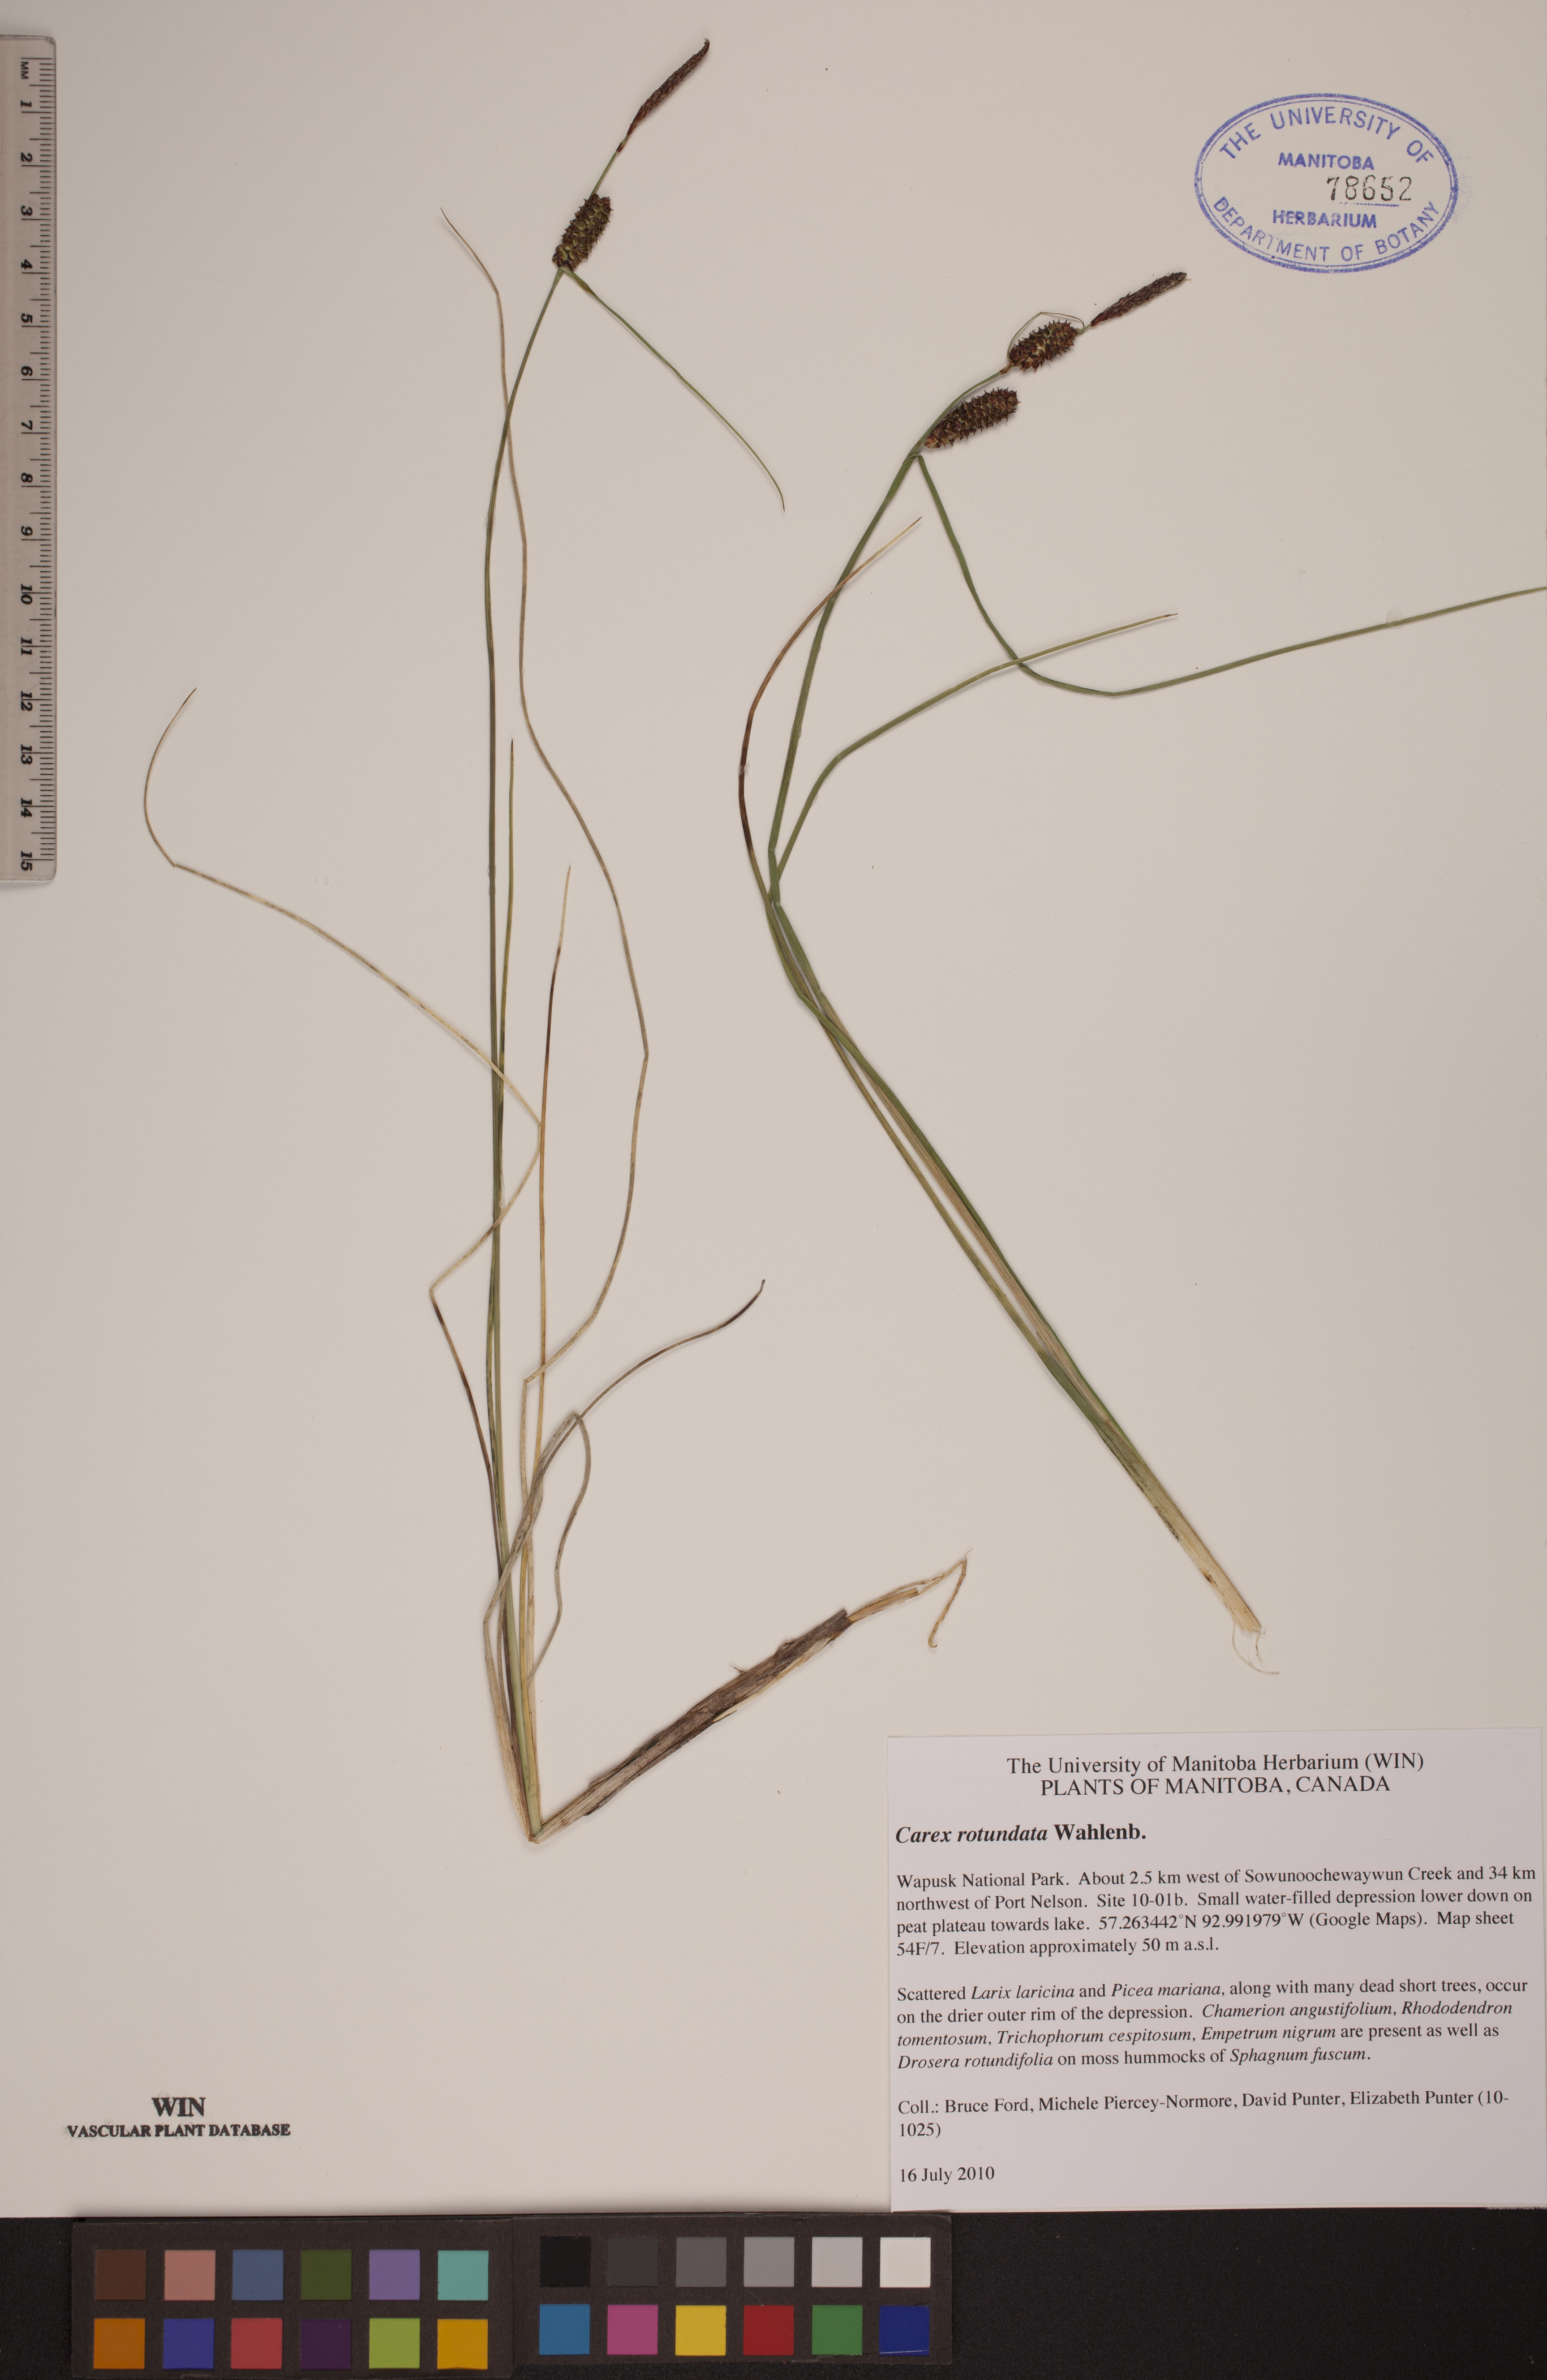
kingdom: Plantae
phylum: Tracheophyta
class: Liliopsida
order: Poales
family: Cyperaceae
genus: Carex
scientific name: Carex rotundata
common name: Round-fruited sedge
